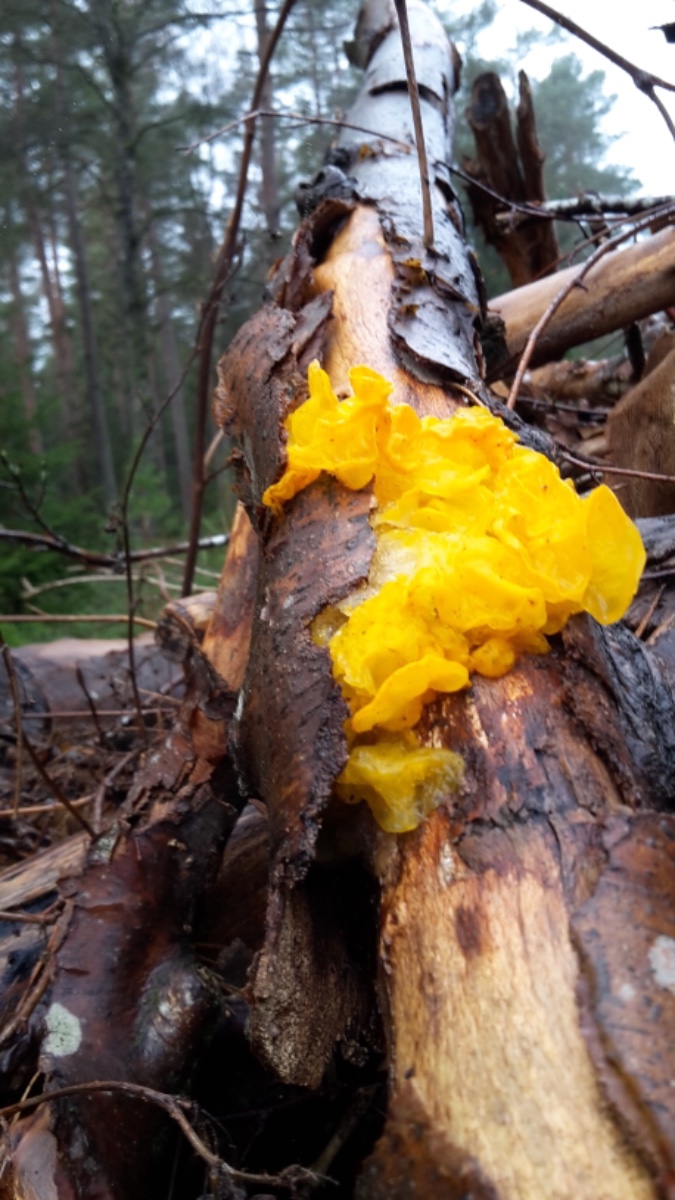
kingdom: Fungi
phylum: Basidiomycota
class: Tremellomycetes
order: Tremellales
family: Tremellaceae
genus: Tremella
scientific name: Tremella mesenterica
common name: gul bævresvamp
